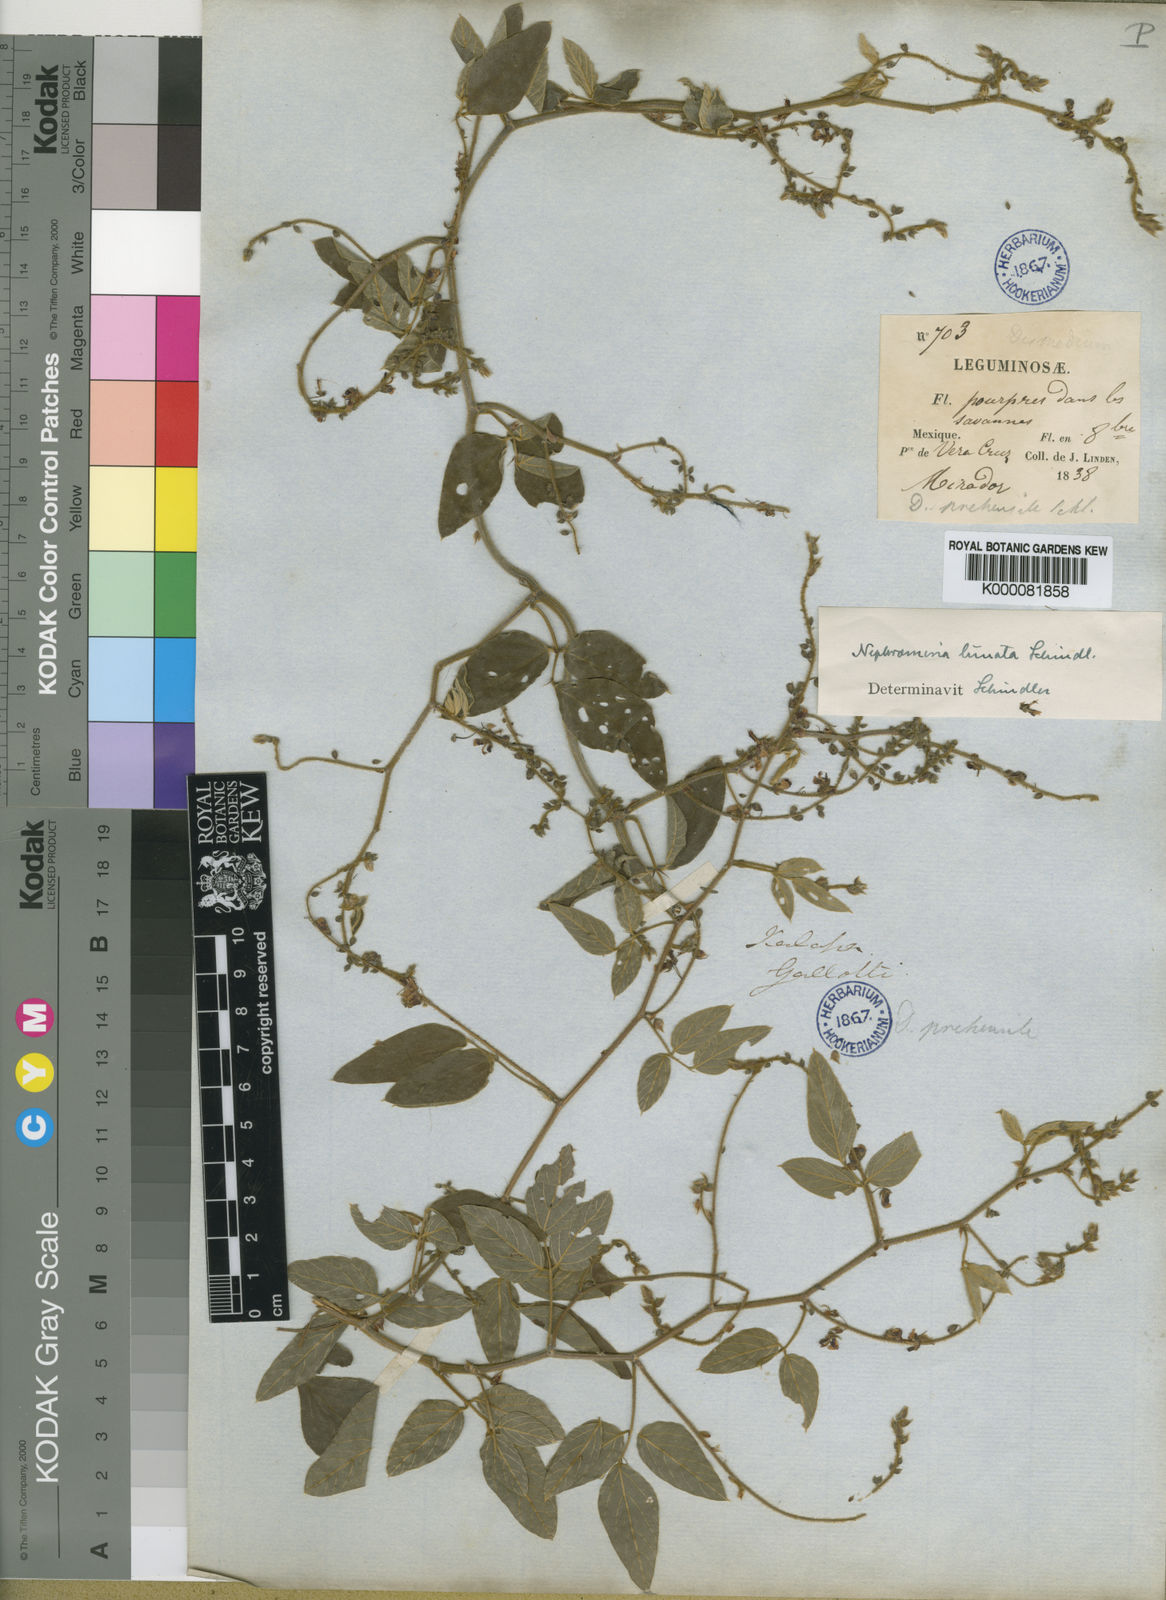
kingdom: Plantae
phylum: Tracheophyta
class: Magnoliopsida
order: Fabales
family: Fabaceae
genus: Desmodium
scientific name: Desmodium prehensile
